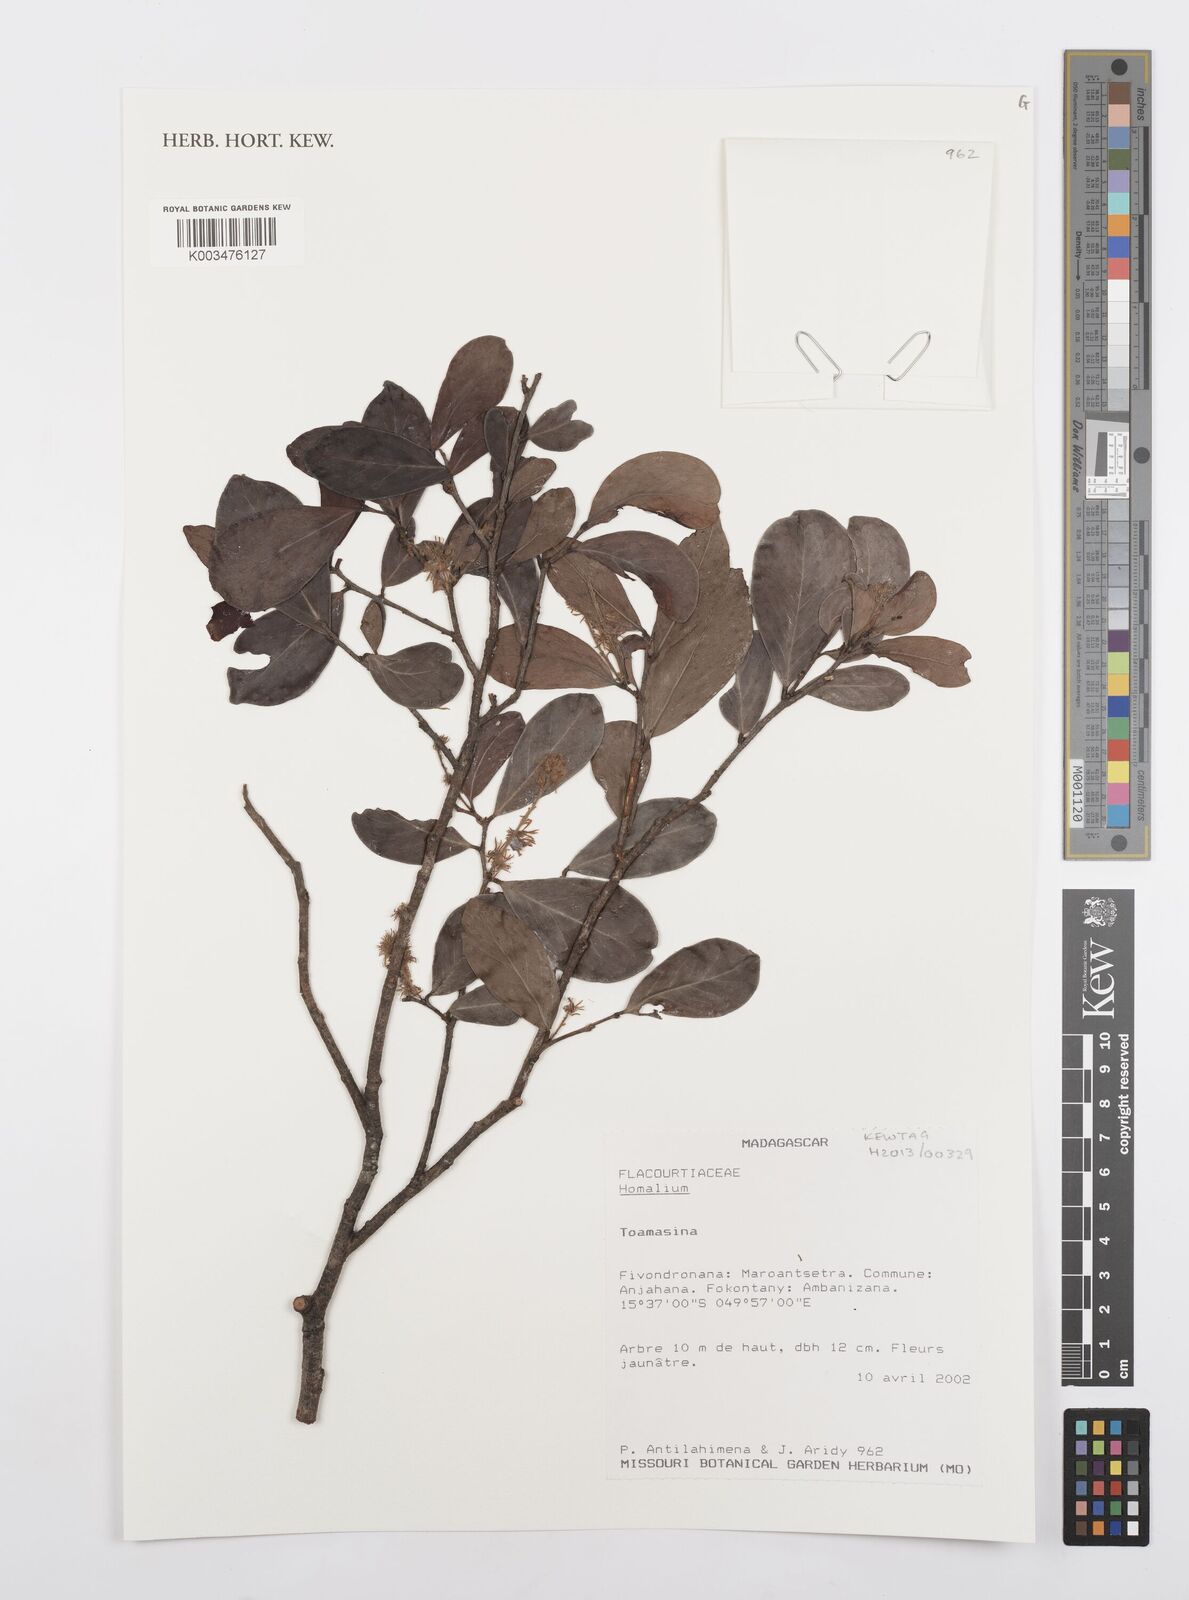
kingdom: Plantae
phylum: Tracheophyta
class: Magnoliopsida
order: Malpighiales
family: Salicaceae
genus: Homalium
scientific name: Homalium
